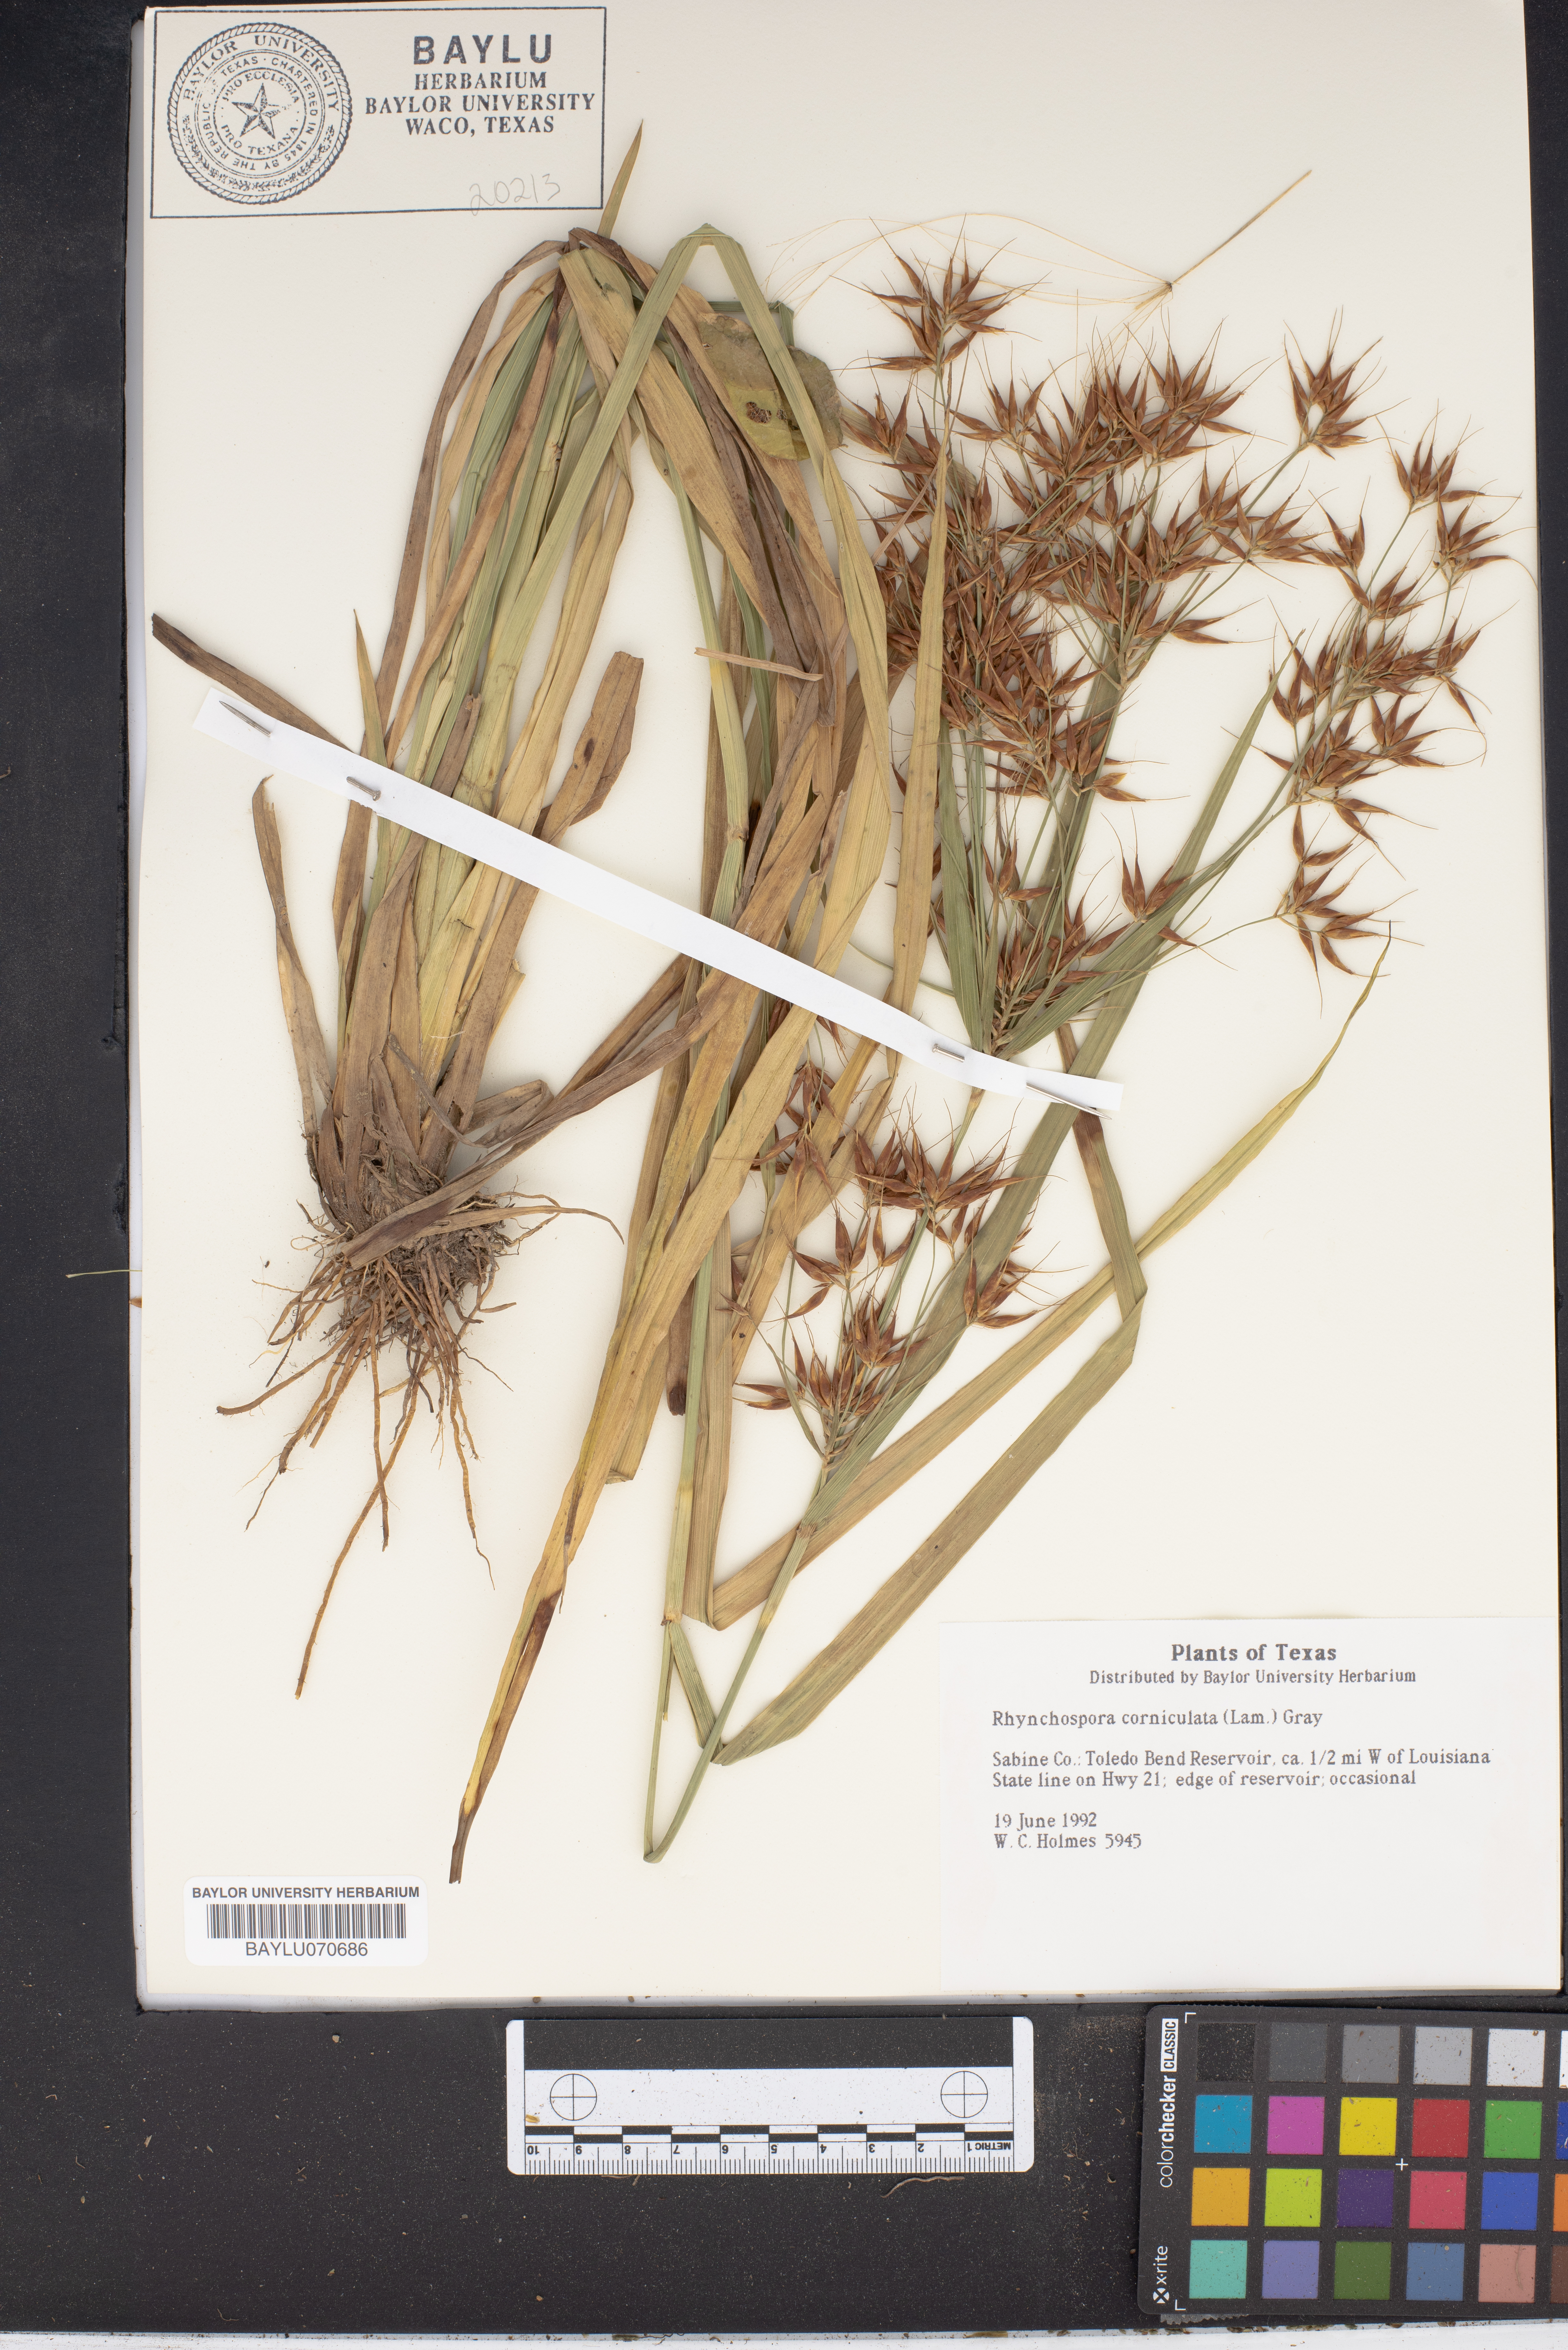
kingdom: Plantae
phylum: Tracheophyta
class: Liliopsida
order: Poales
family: Cyperaceae
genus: Rhynchospora
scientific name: Rhynchospora corniculata
